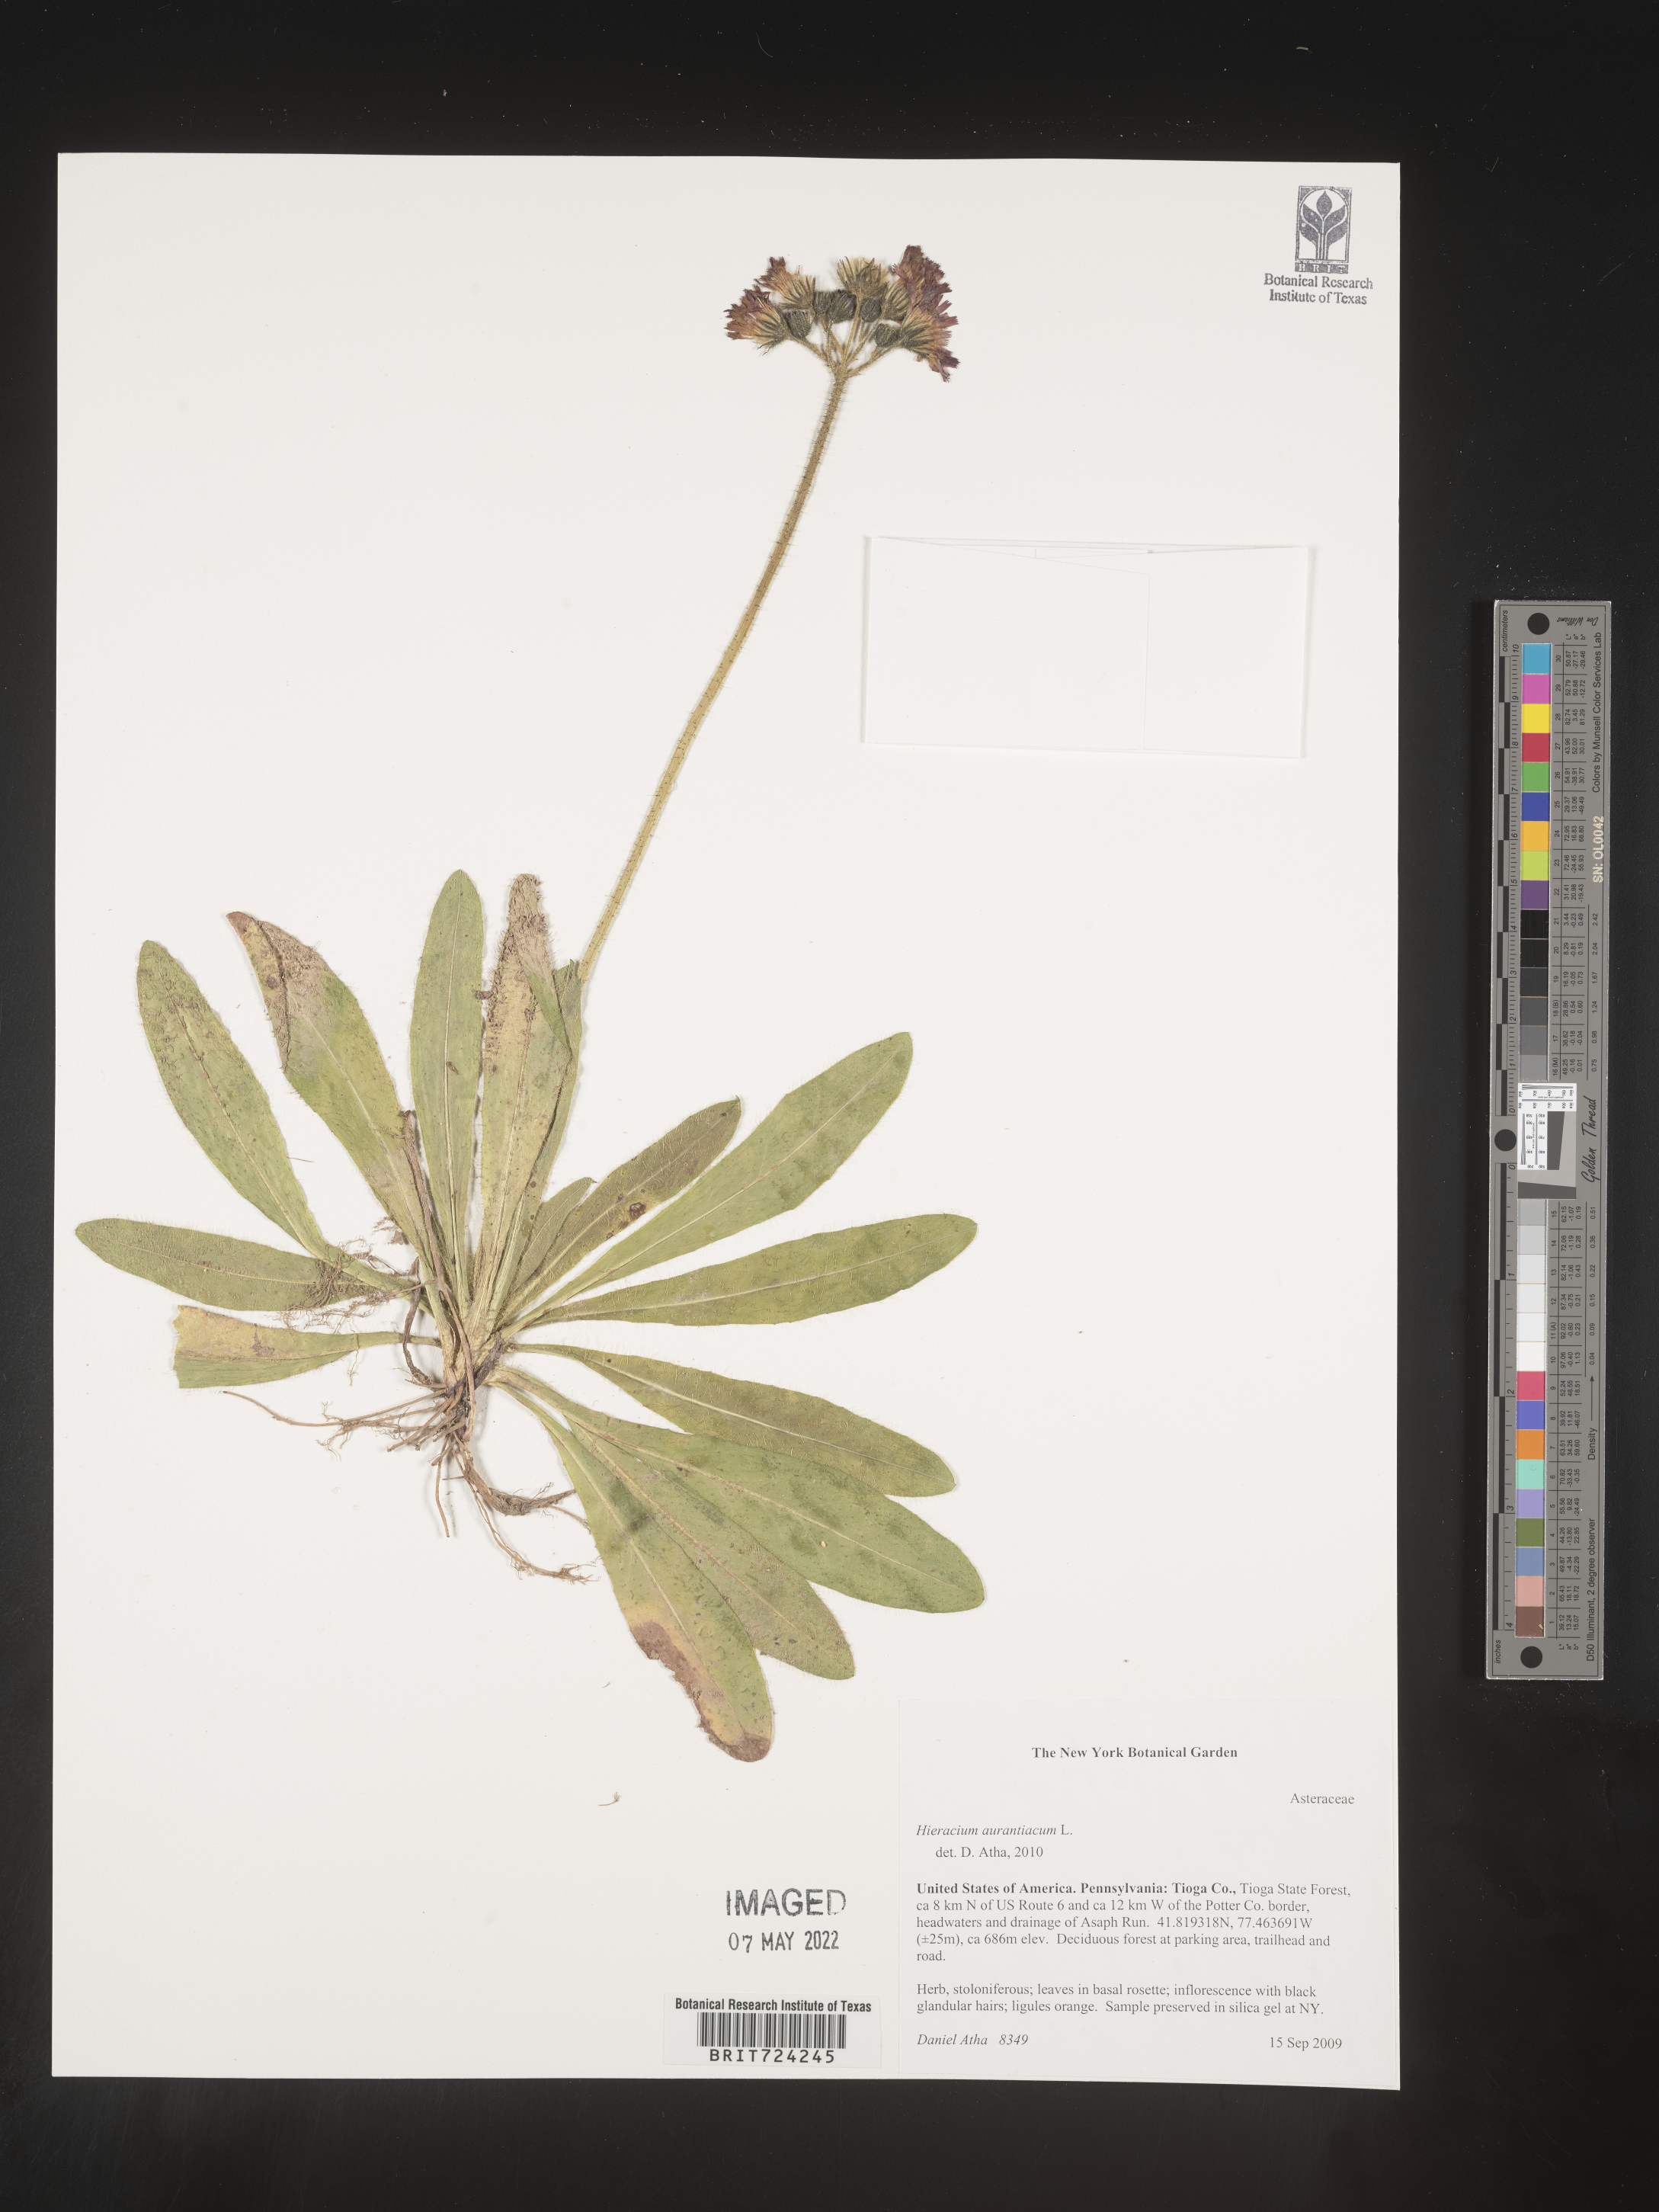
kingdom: Plantae
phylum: Tracheophyta
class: Magnoliopsida
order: Asterales
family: Asteraceae
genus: Pilosella
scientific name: Pilosella aurantiaca
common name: Fox-and-cubs
